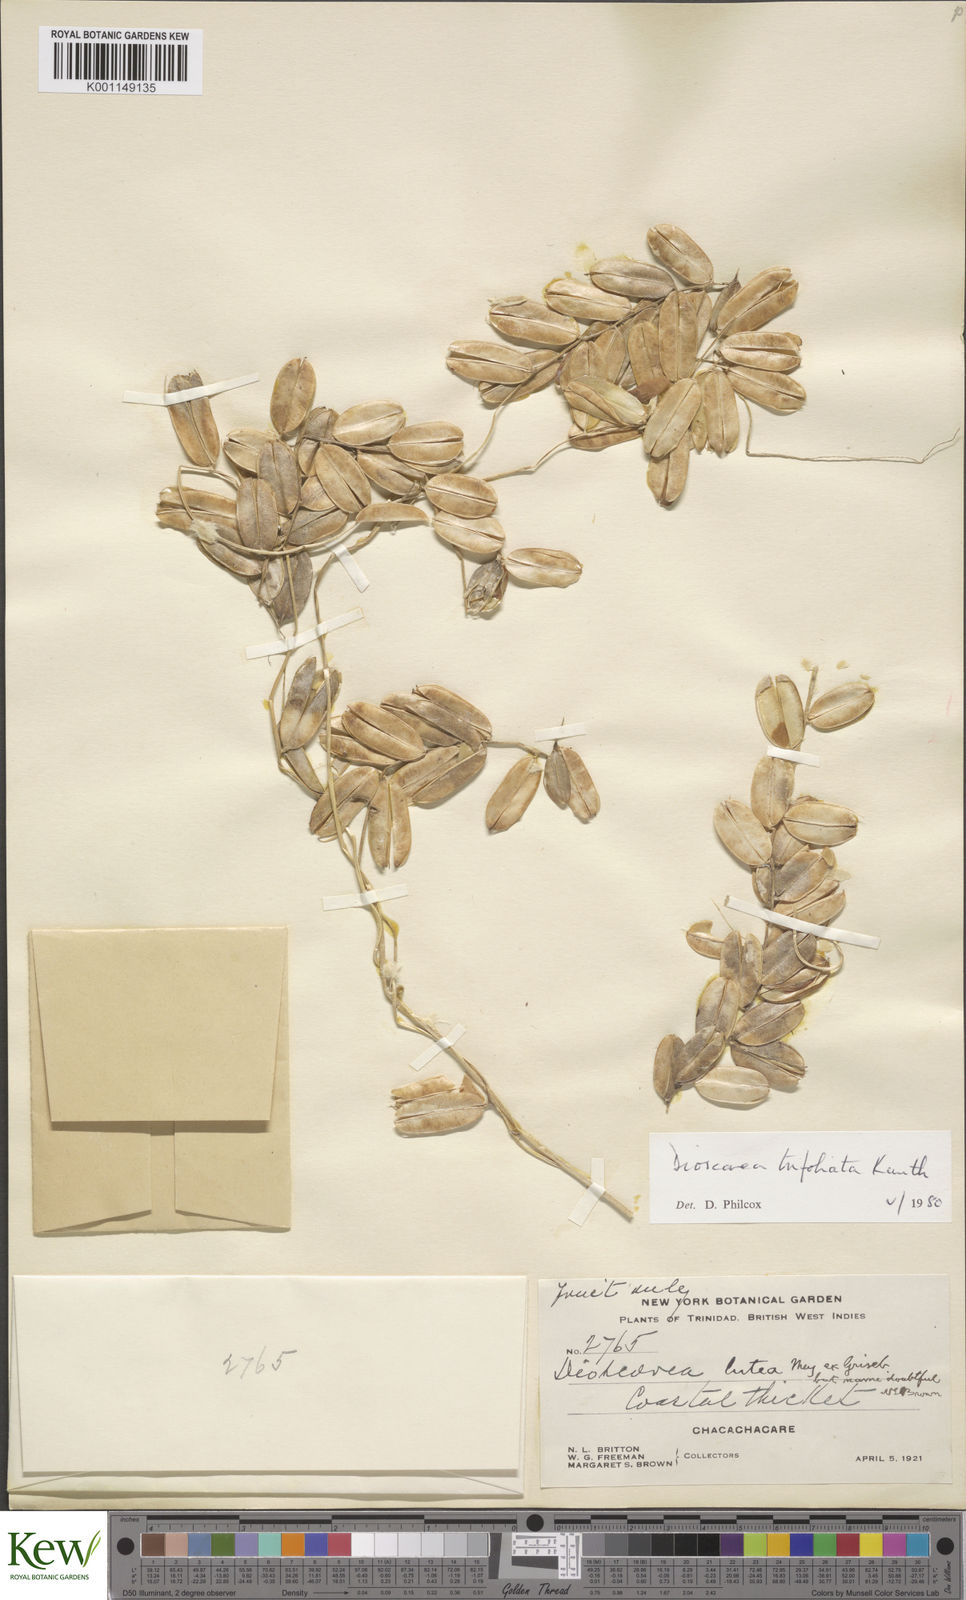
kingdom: Plantae
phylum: Tracheophyta
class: Liliopsida
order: Dioscoreales
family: Dioscoreaceae
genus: Dioscorea
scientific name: Dioscorea trifoliata
